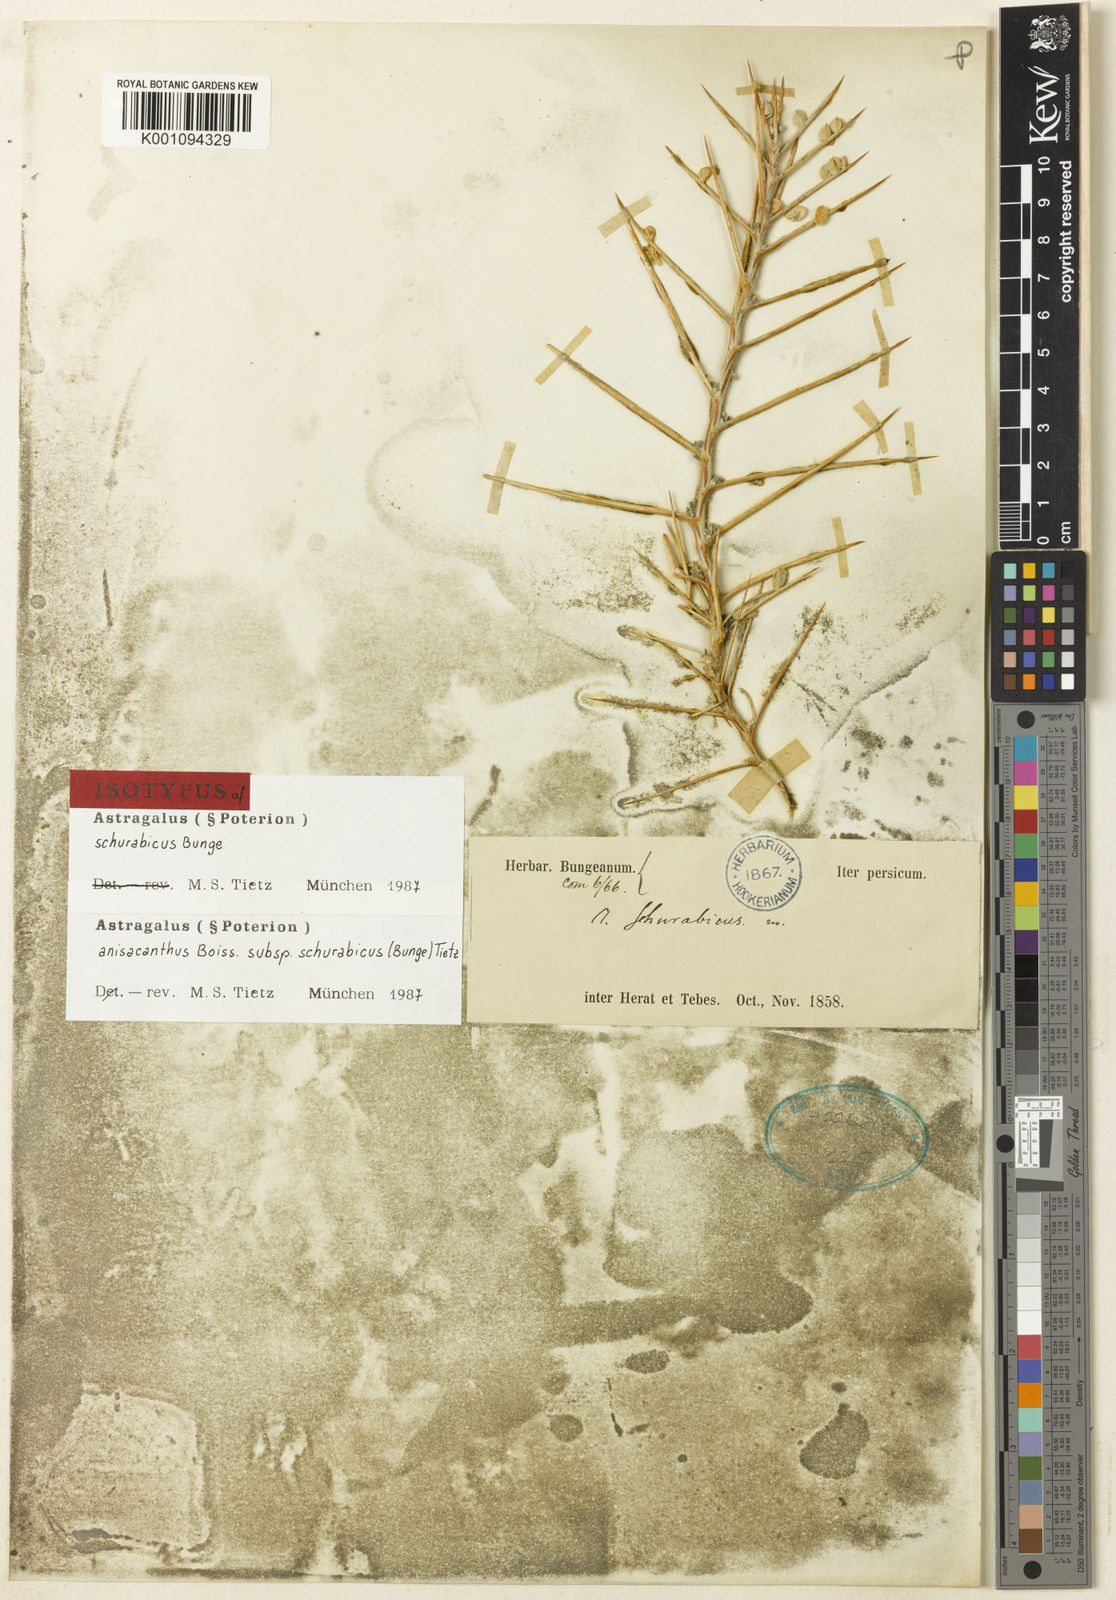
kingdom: Plantae
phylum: Tracheophyta
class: Magnoliopsida
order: Fabales
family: Fabaceae
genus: Astragalus
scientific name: Astragalus anisacanthus
